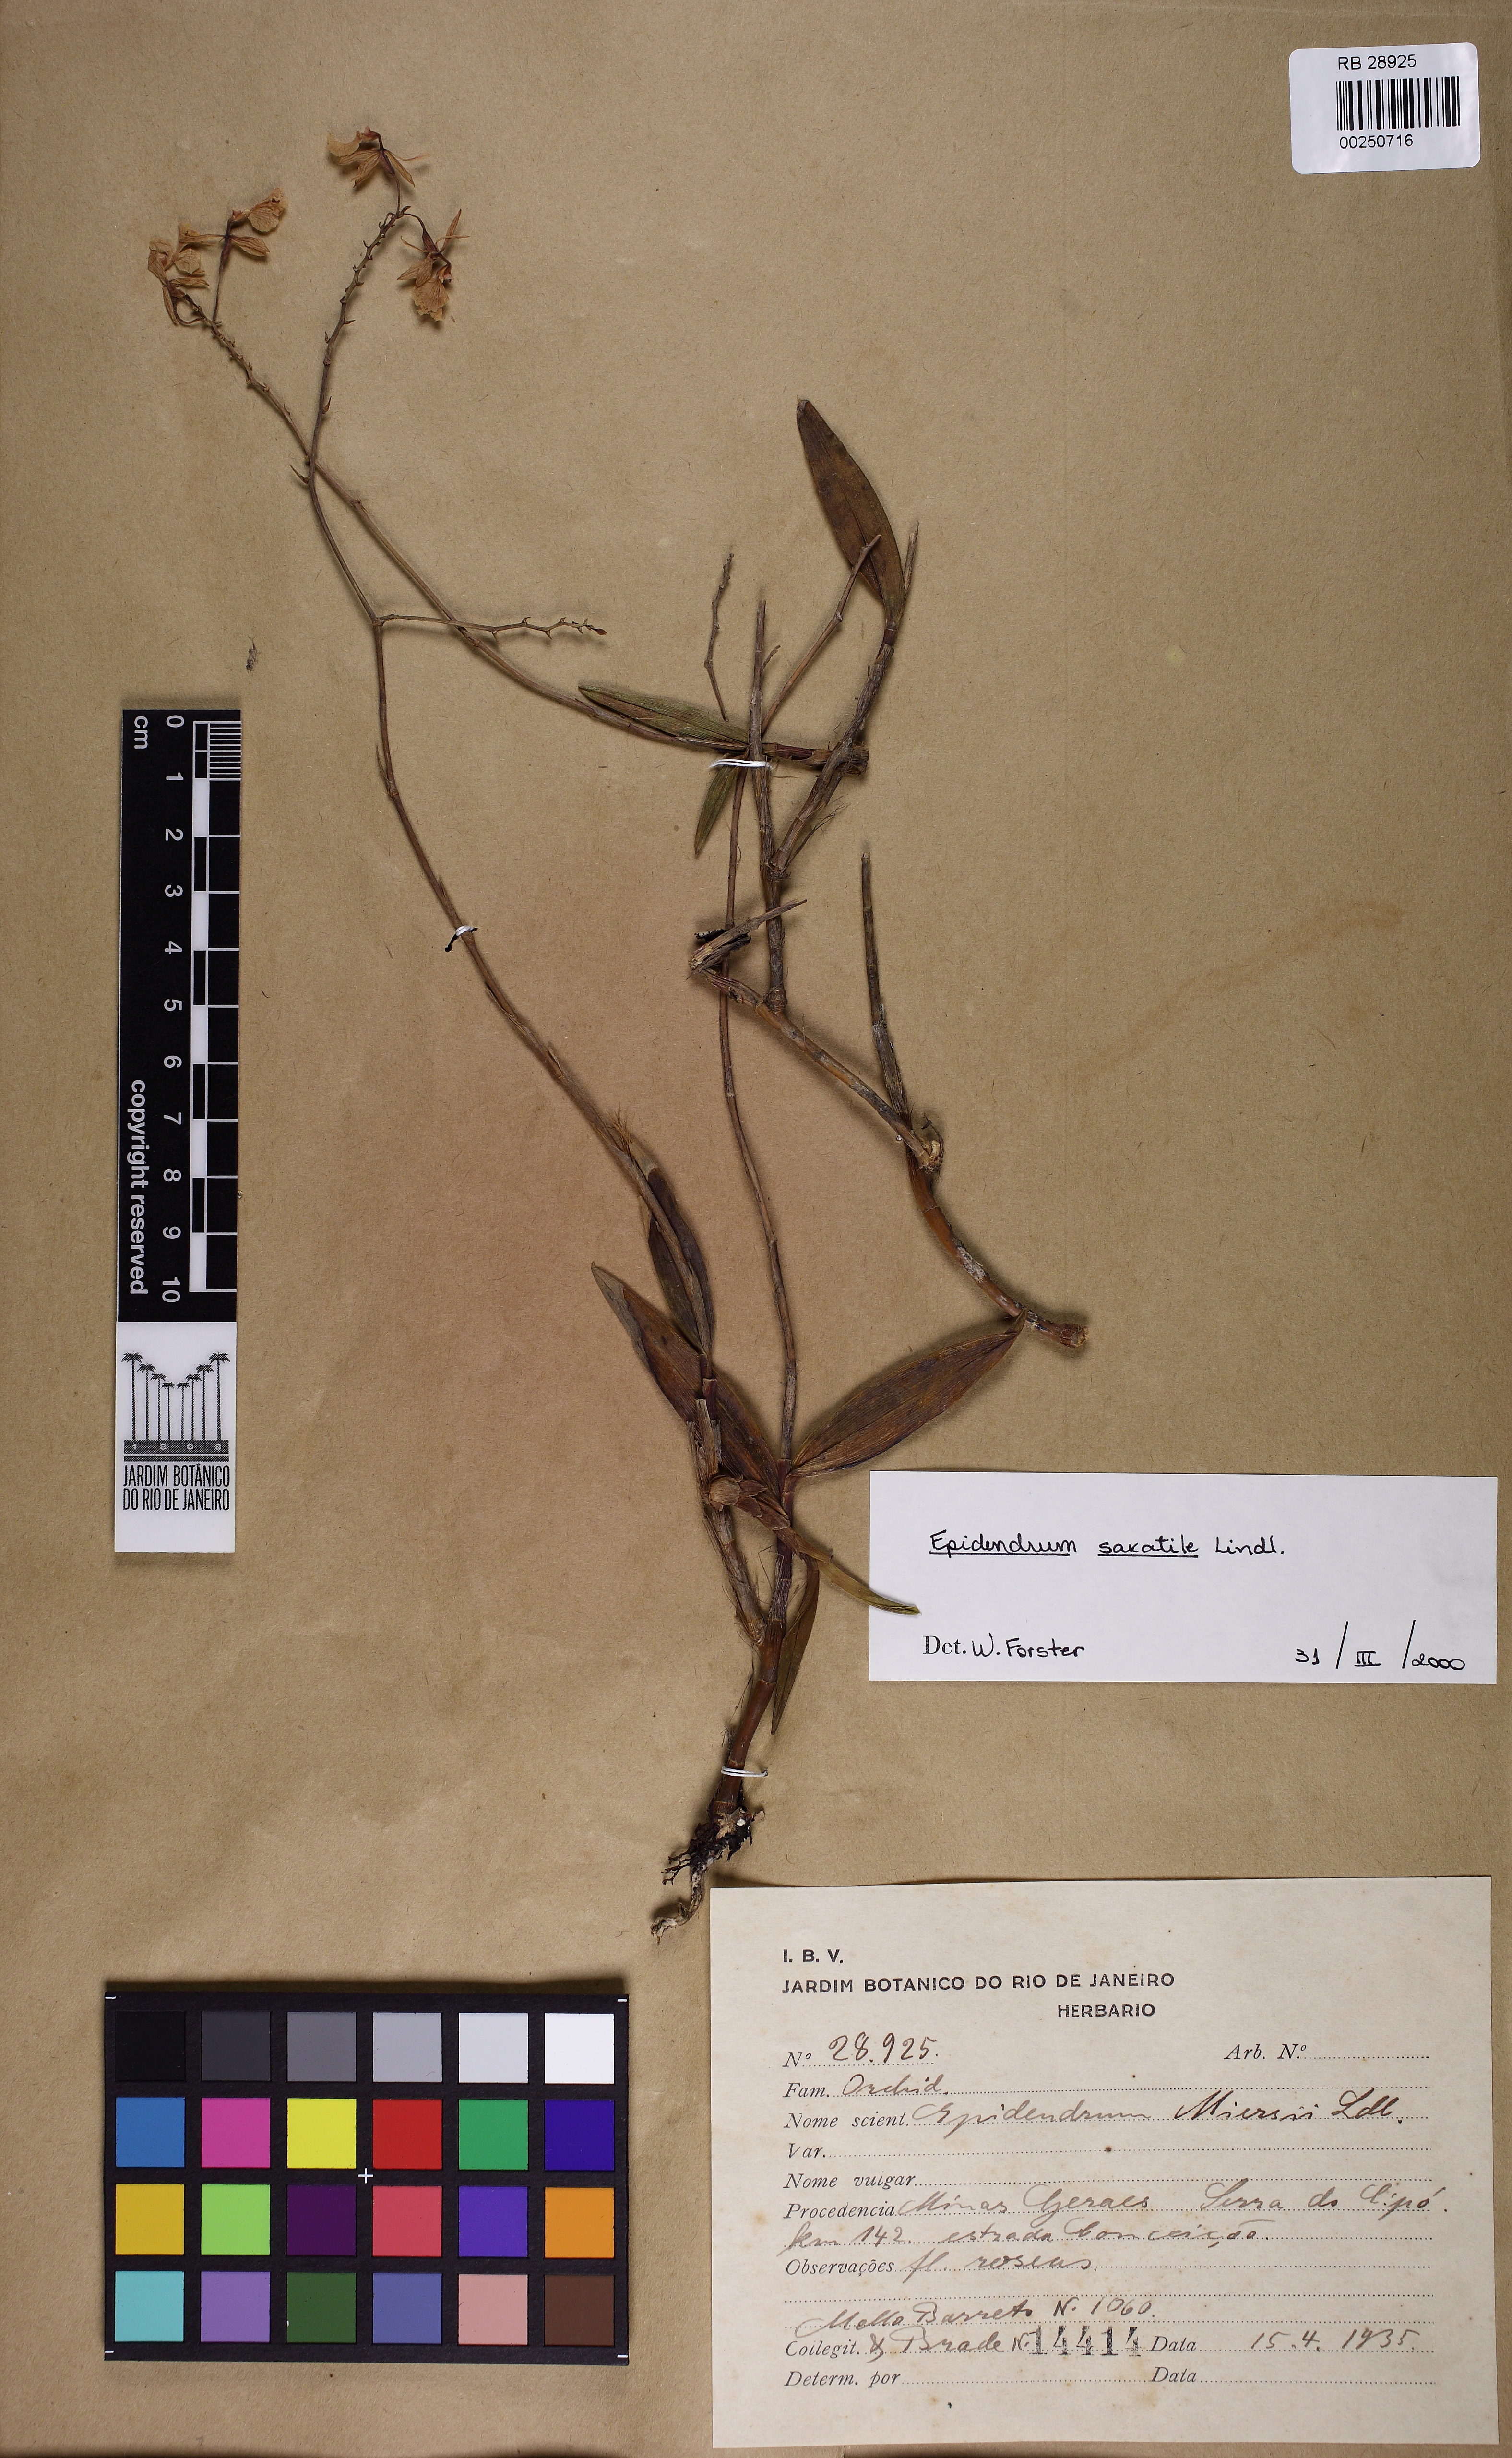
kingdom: Plantae
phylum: Tracheophyta
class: Liliopsida
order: Asparagales
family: Orchidaceae
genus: Epidendrum
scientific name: Epidendrum saxatile
